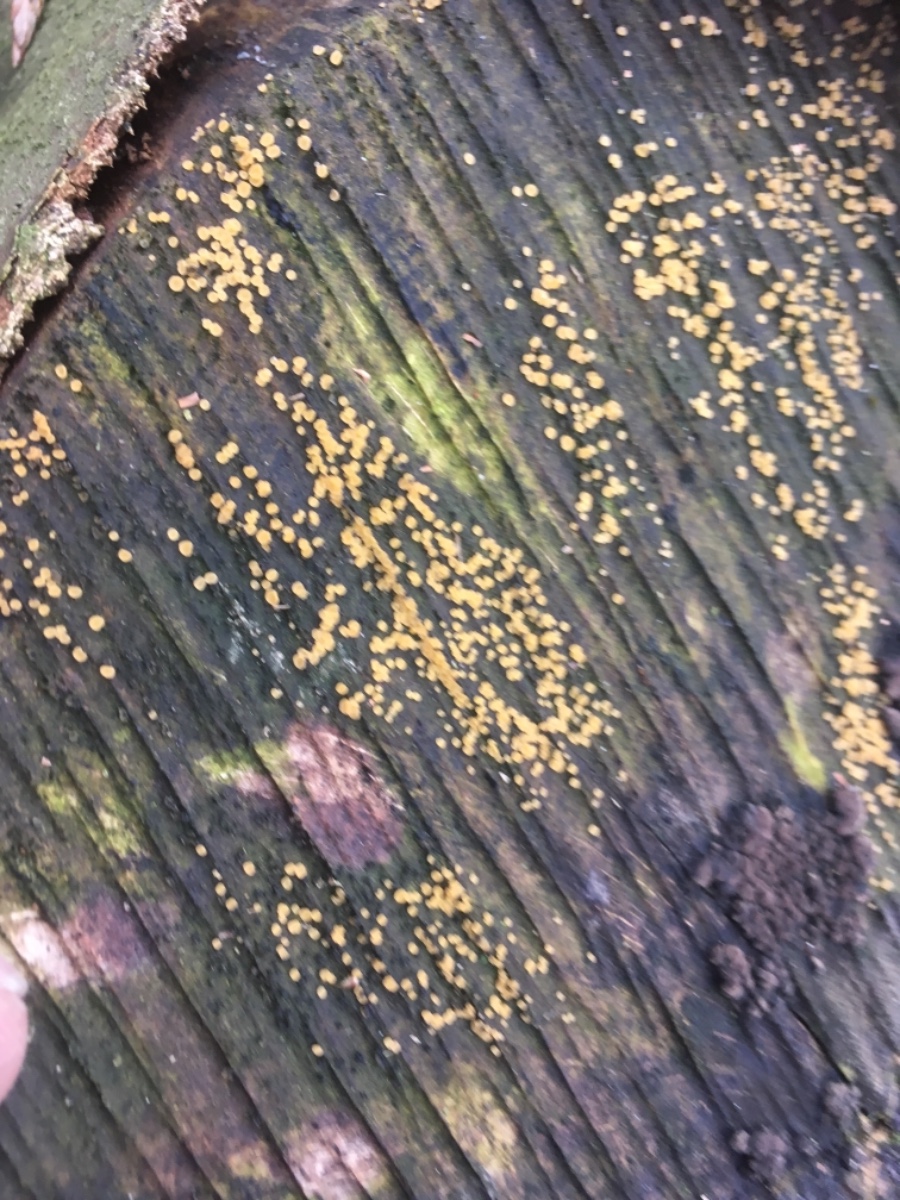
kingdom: Fungi
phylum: Ascomycota
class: Leotiomycetes
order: Helotiales
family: Helotiaceae
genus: Bisporella
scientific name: Bisporella
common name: snitskive
